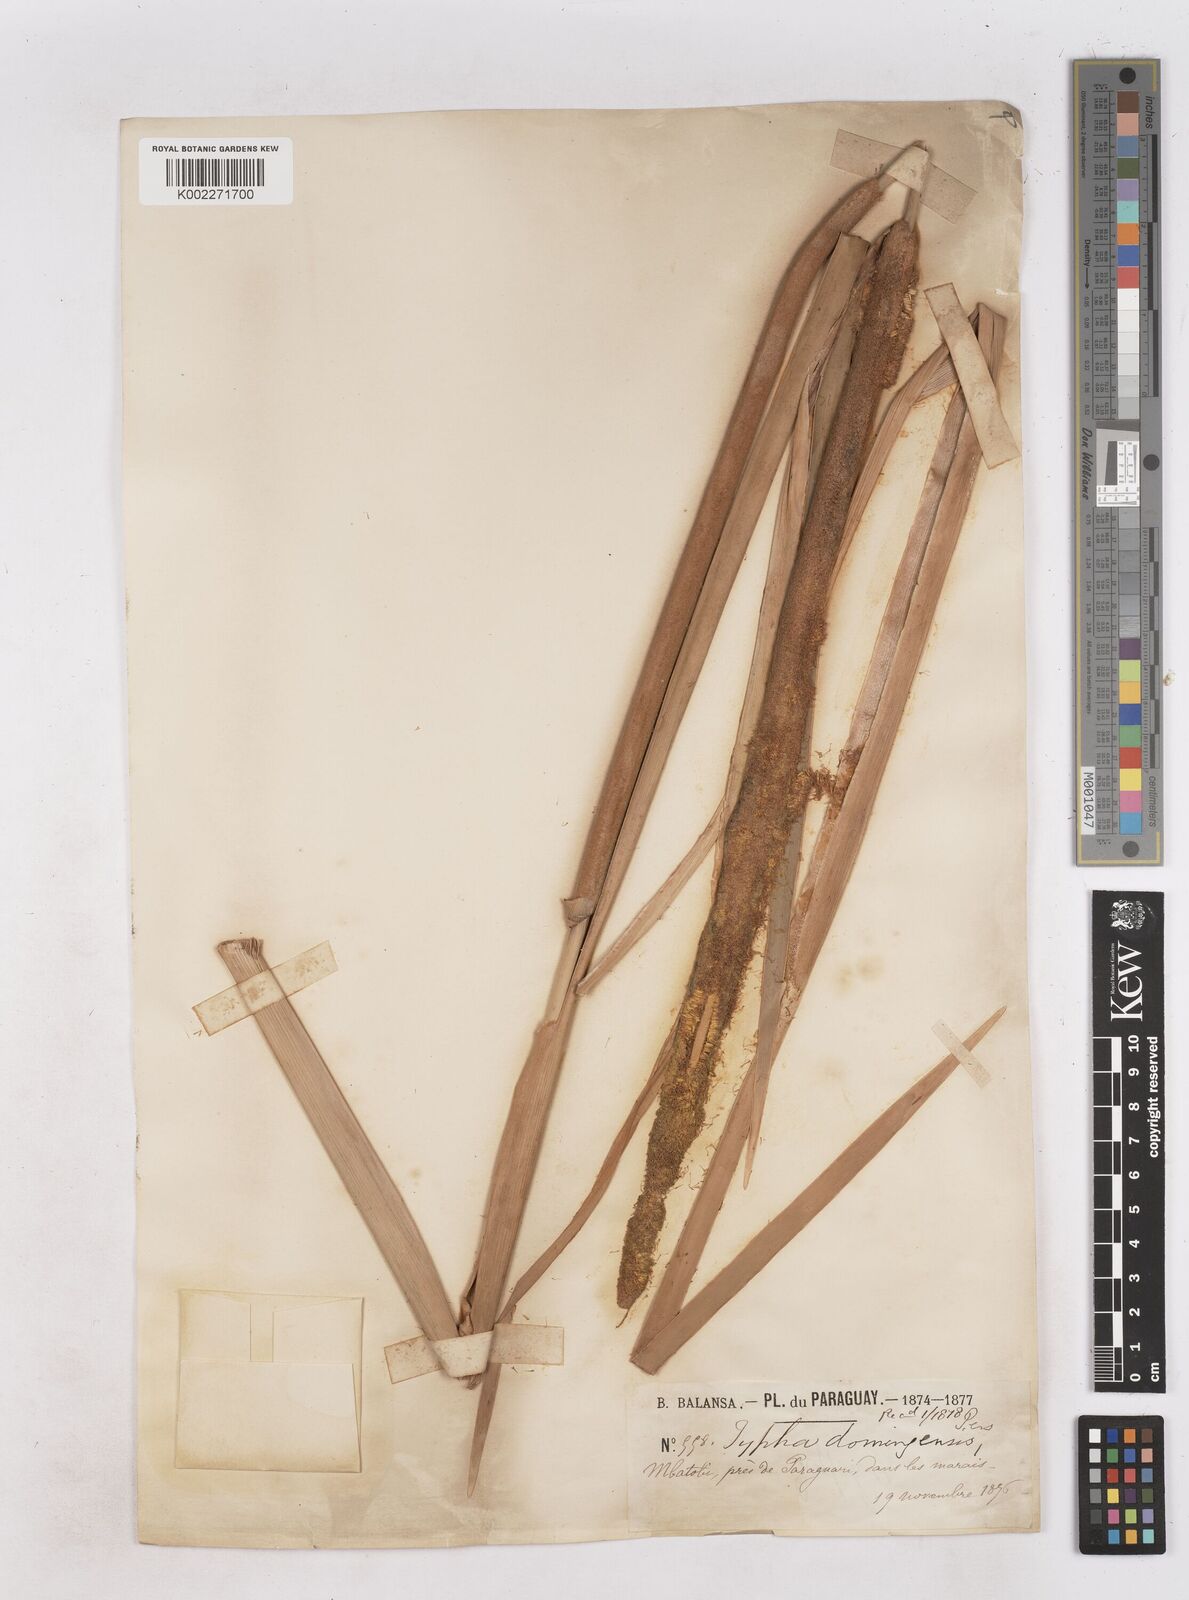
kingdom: Plantae
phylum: Tracheophyta
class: Liliopsida
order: Poales
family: Typhaceae
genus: Typha
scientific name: Typha domingensis
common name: Southern cattail
